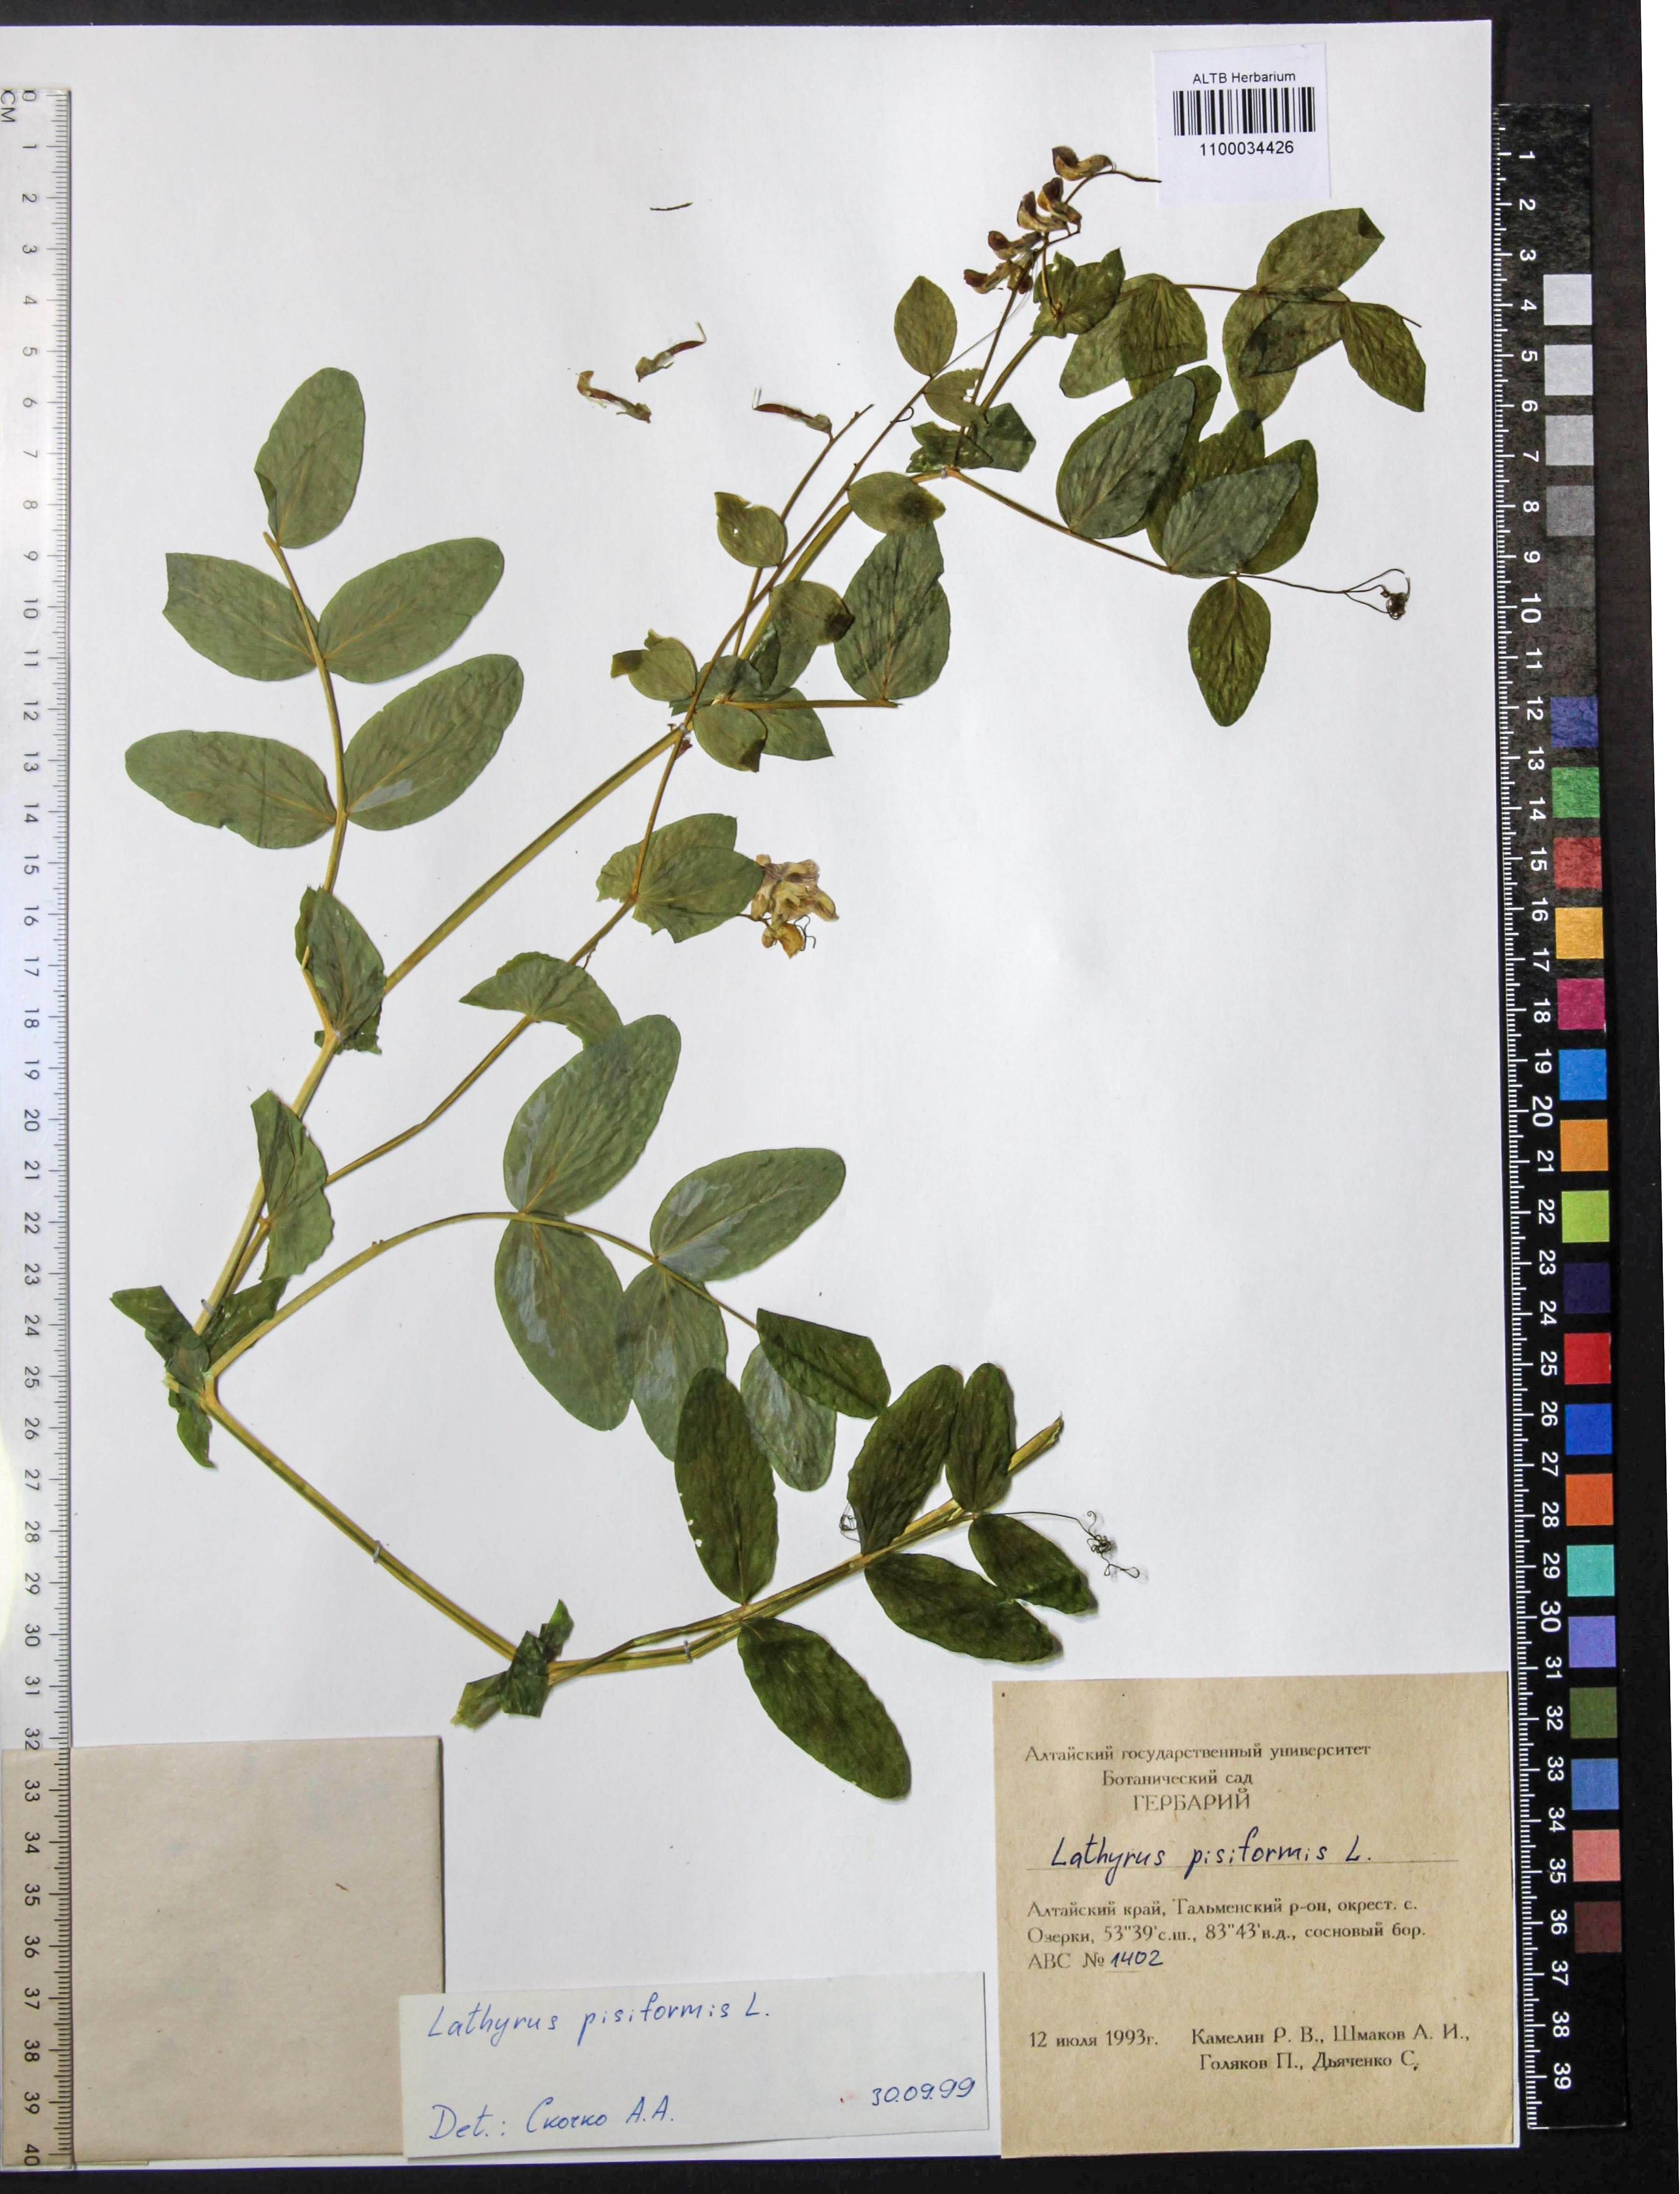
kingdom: Plantae
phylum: Tracheophyta
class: Magnoliopsida
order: Fabales
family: Fabaceae
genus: Lathyrus
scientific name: Lathyrus pisiformis
